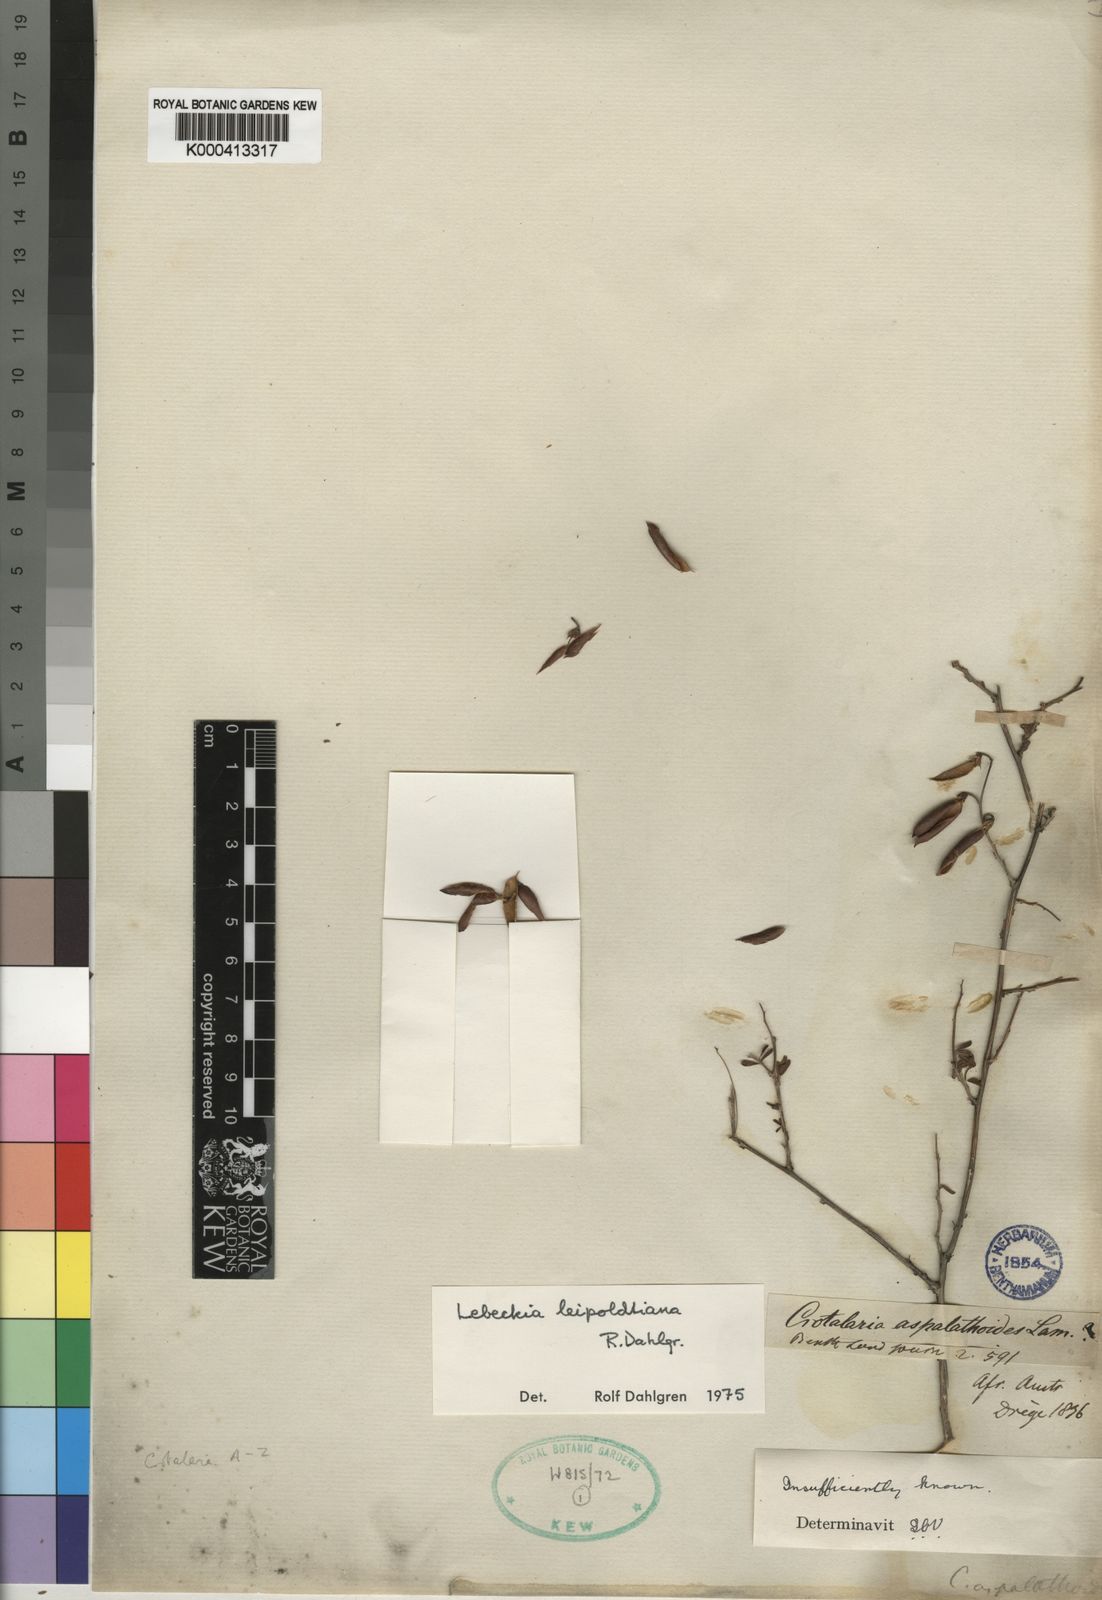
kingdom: Plantae
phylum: Tracheophyta
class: Magnoliopsida
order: Fabales
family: Fabaceae
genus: Wiborgiella
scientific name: Wiborgiella leipoldtiana
